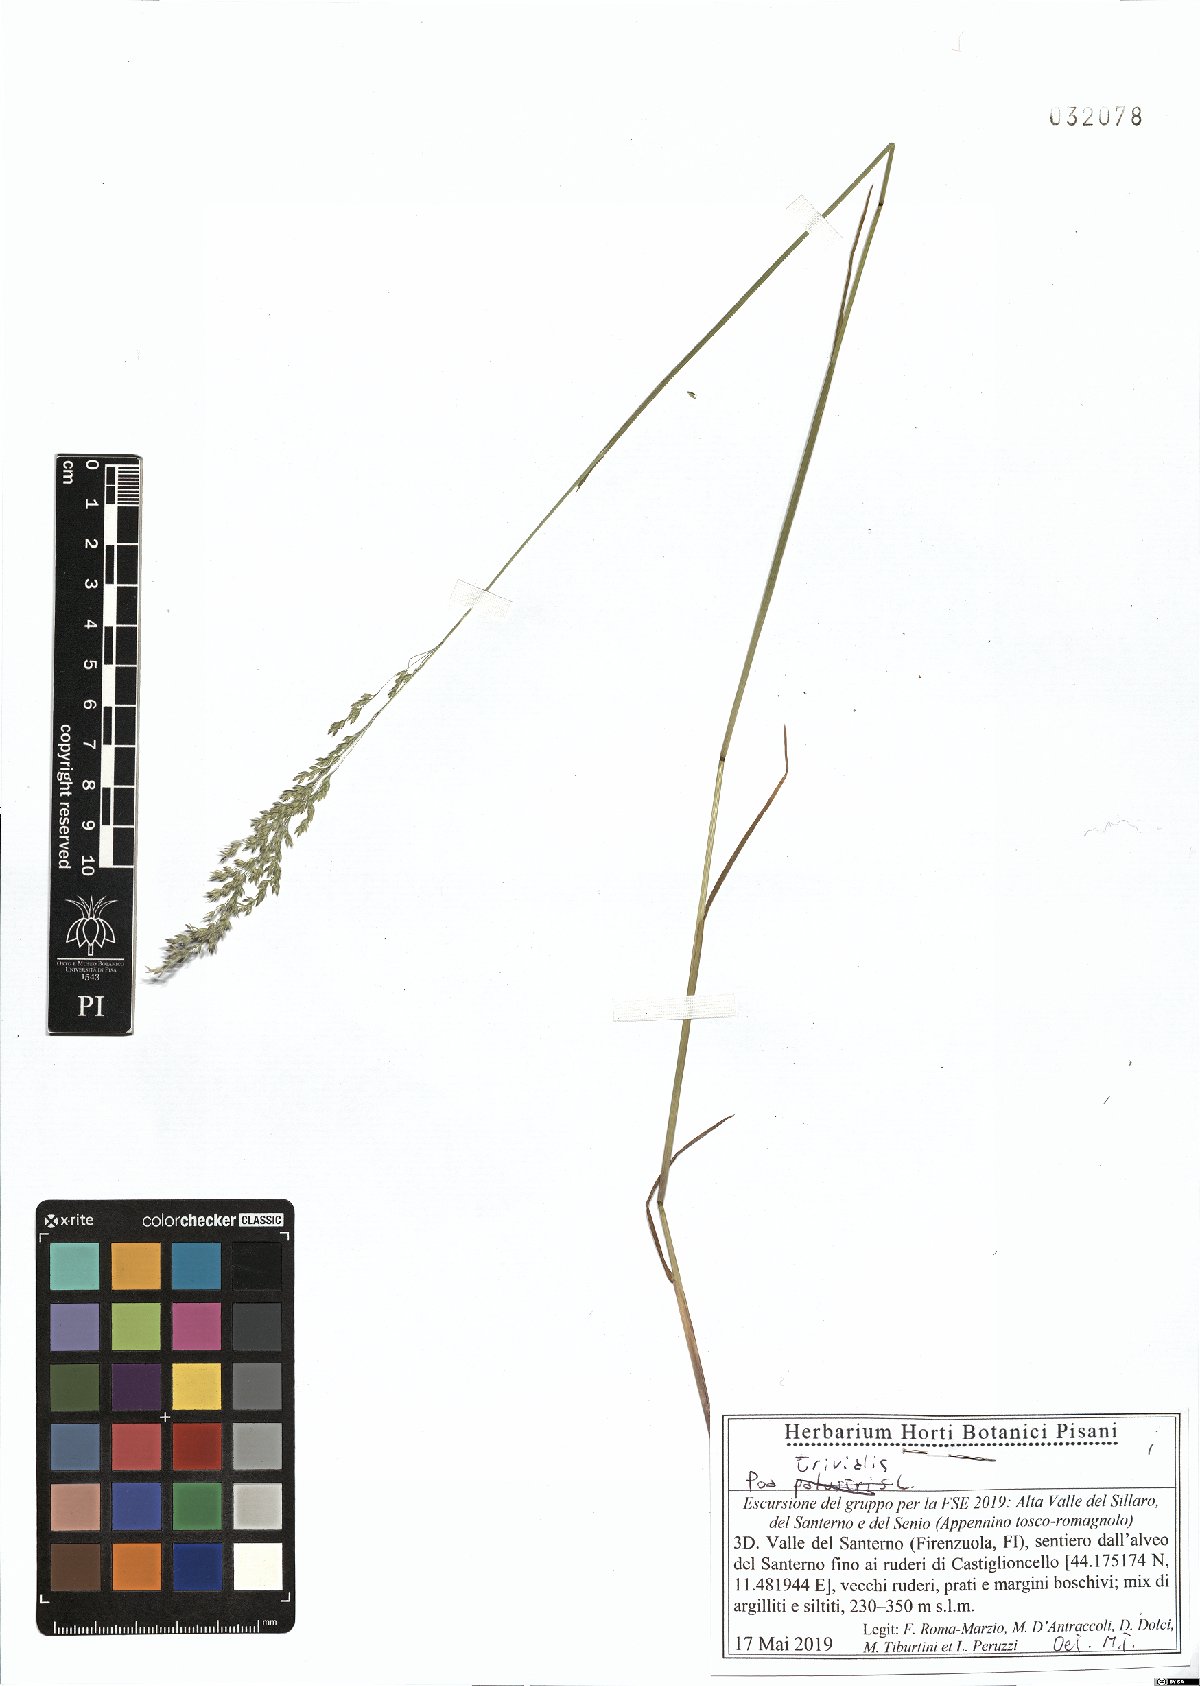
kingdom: Plantae
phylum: Tracheophyta
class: Liliopsida
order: Poales
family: Poaceae
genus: Poa
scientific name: Poa trivialis
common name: Rough bluegrass
